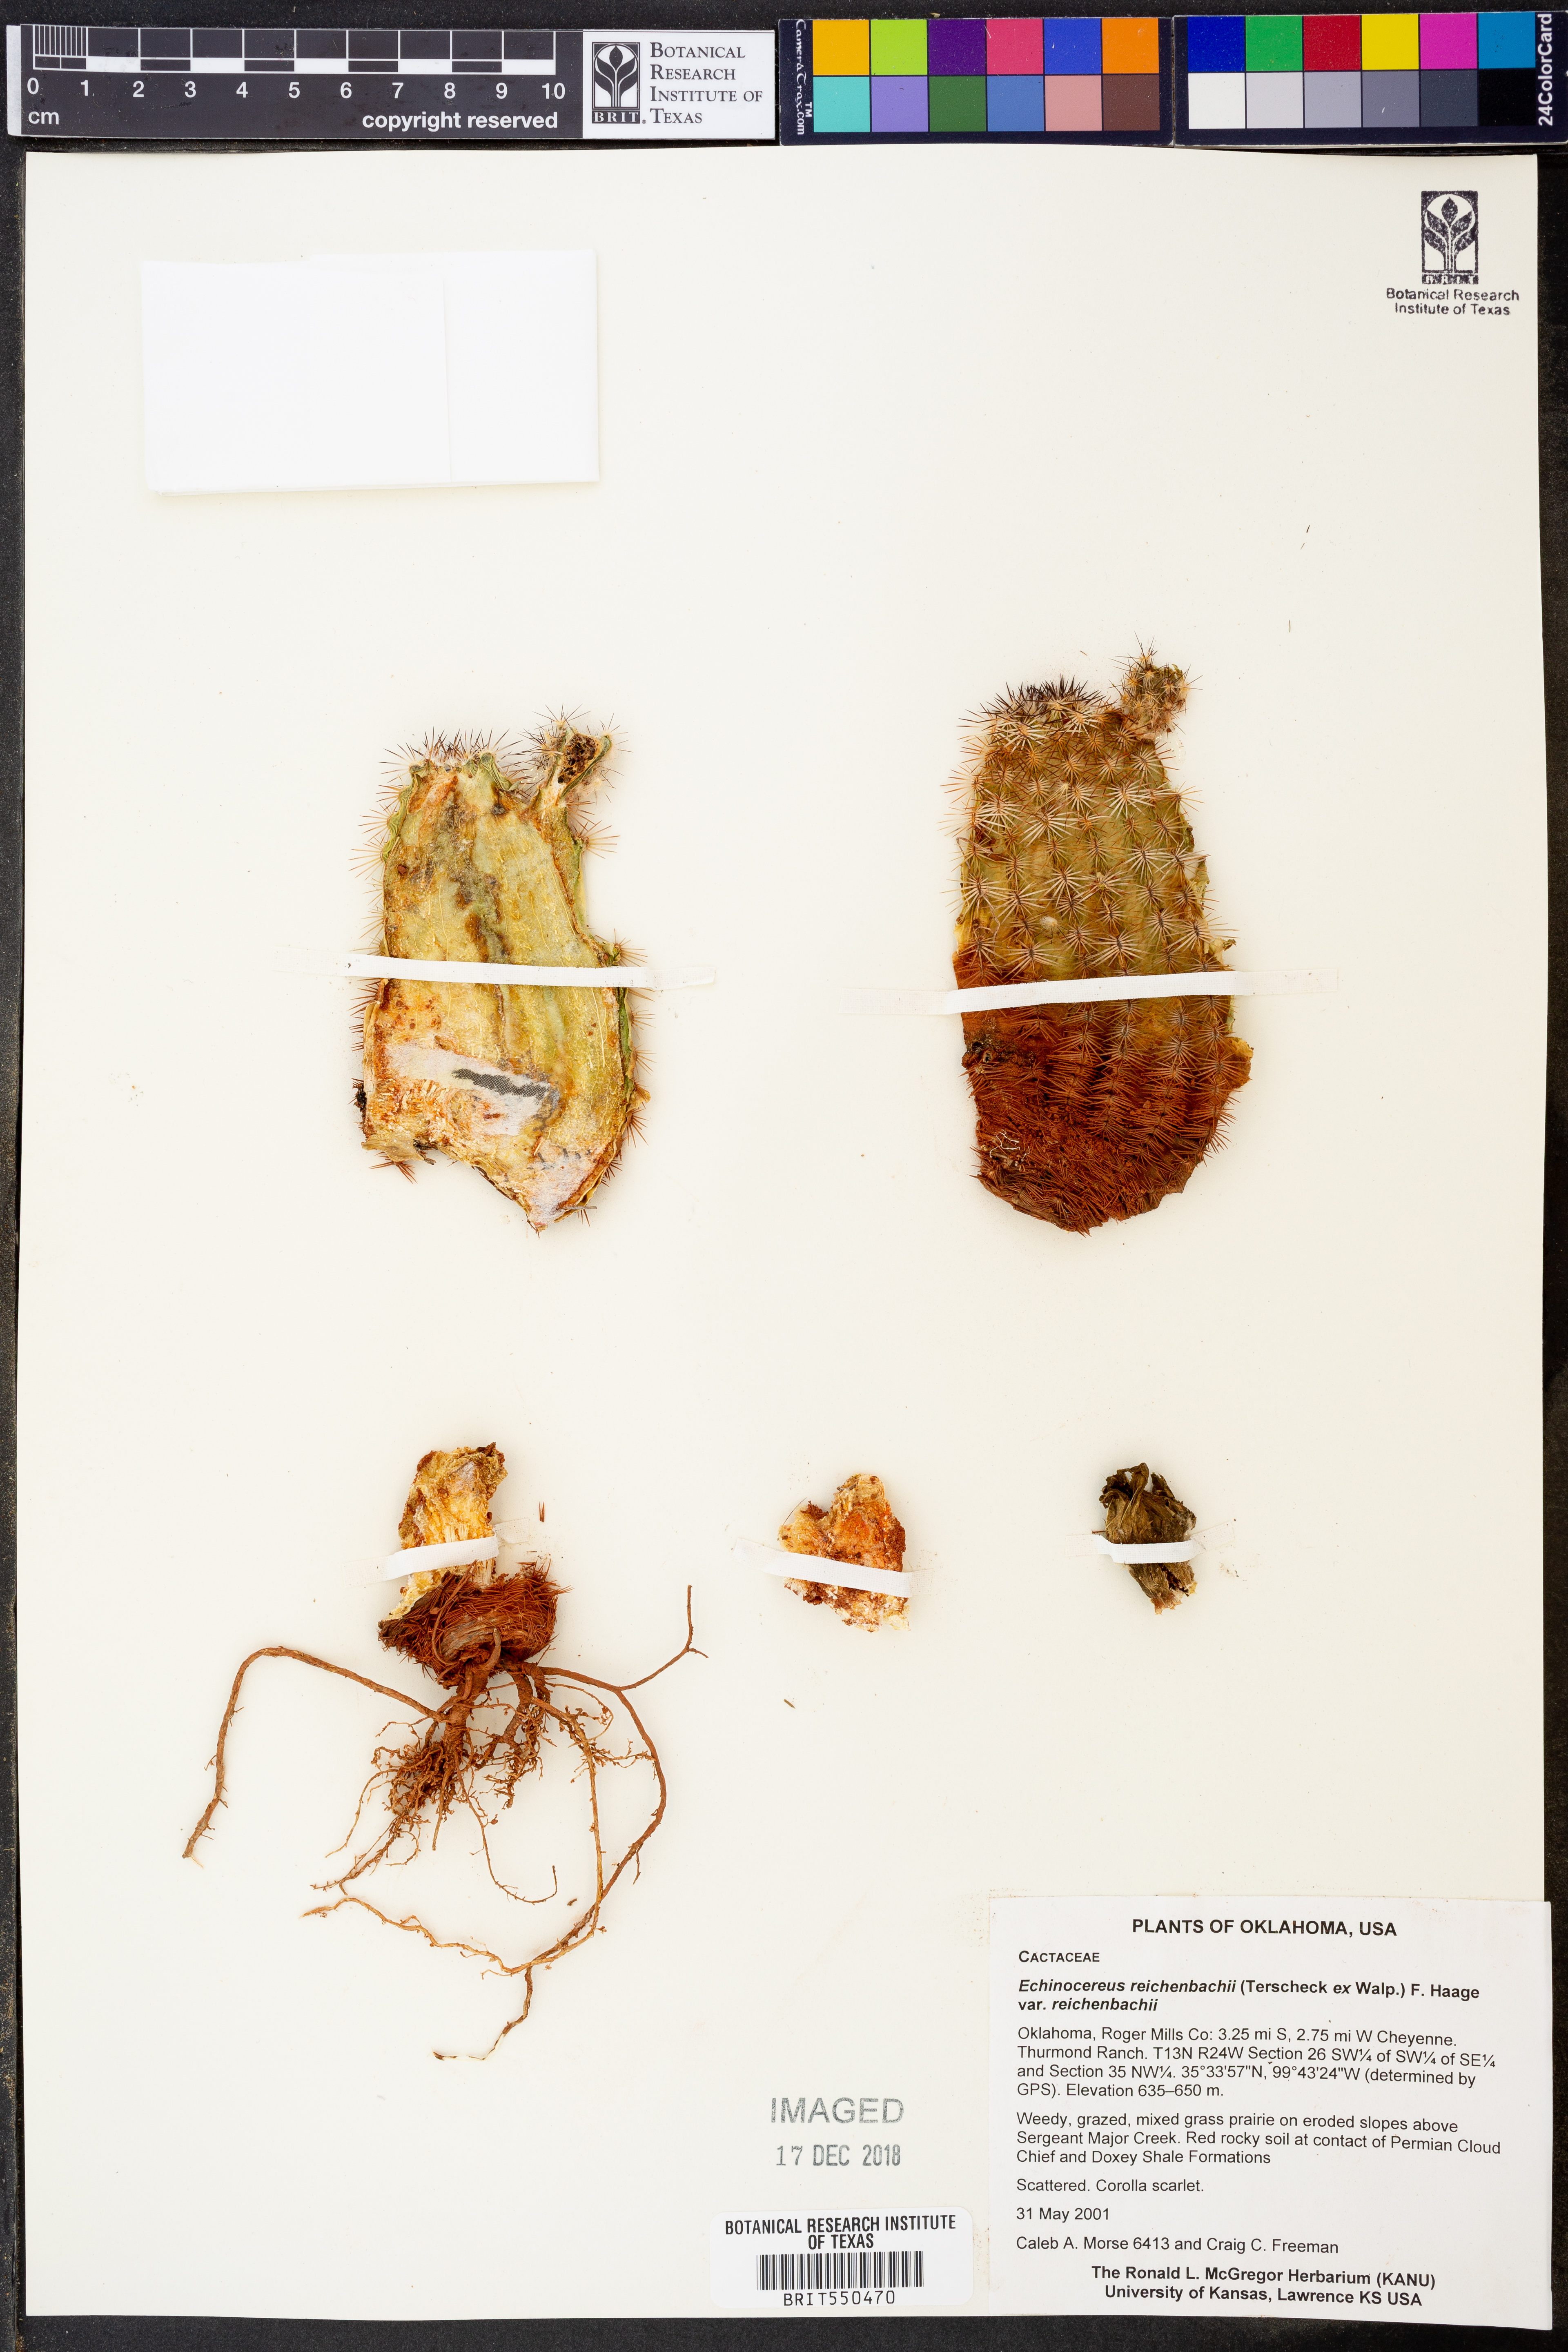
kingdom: Plantae
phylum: Tracheophyta
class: Magnoliopsida
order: Caryophyllales
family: Cactaceae
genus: Echinocereus
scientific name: Echinocereus reichenbachii
